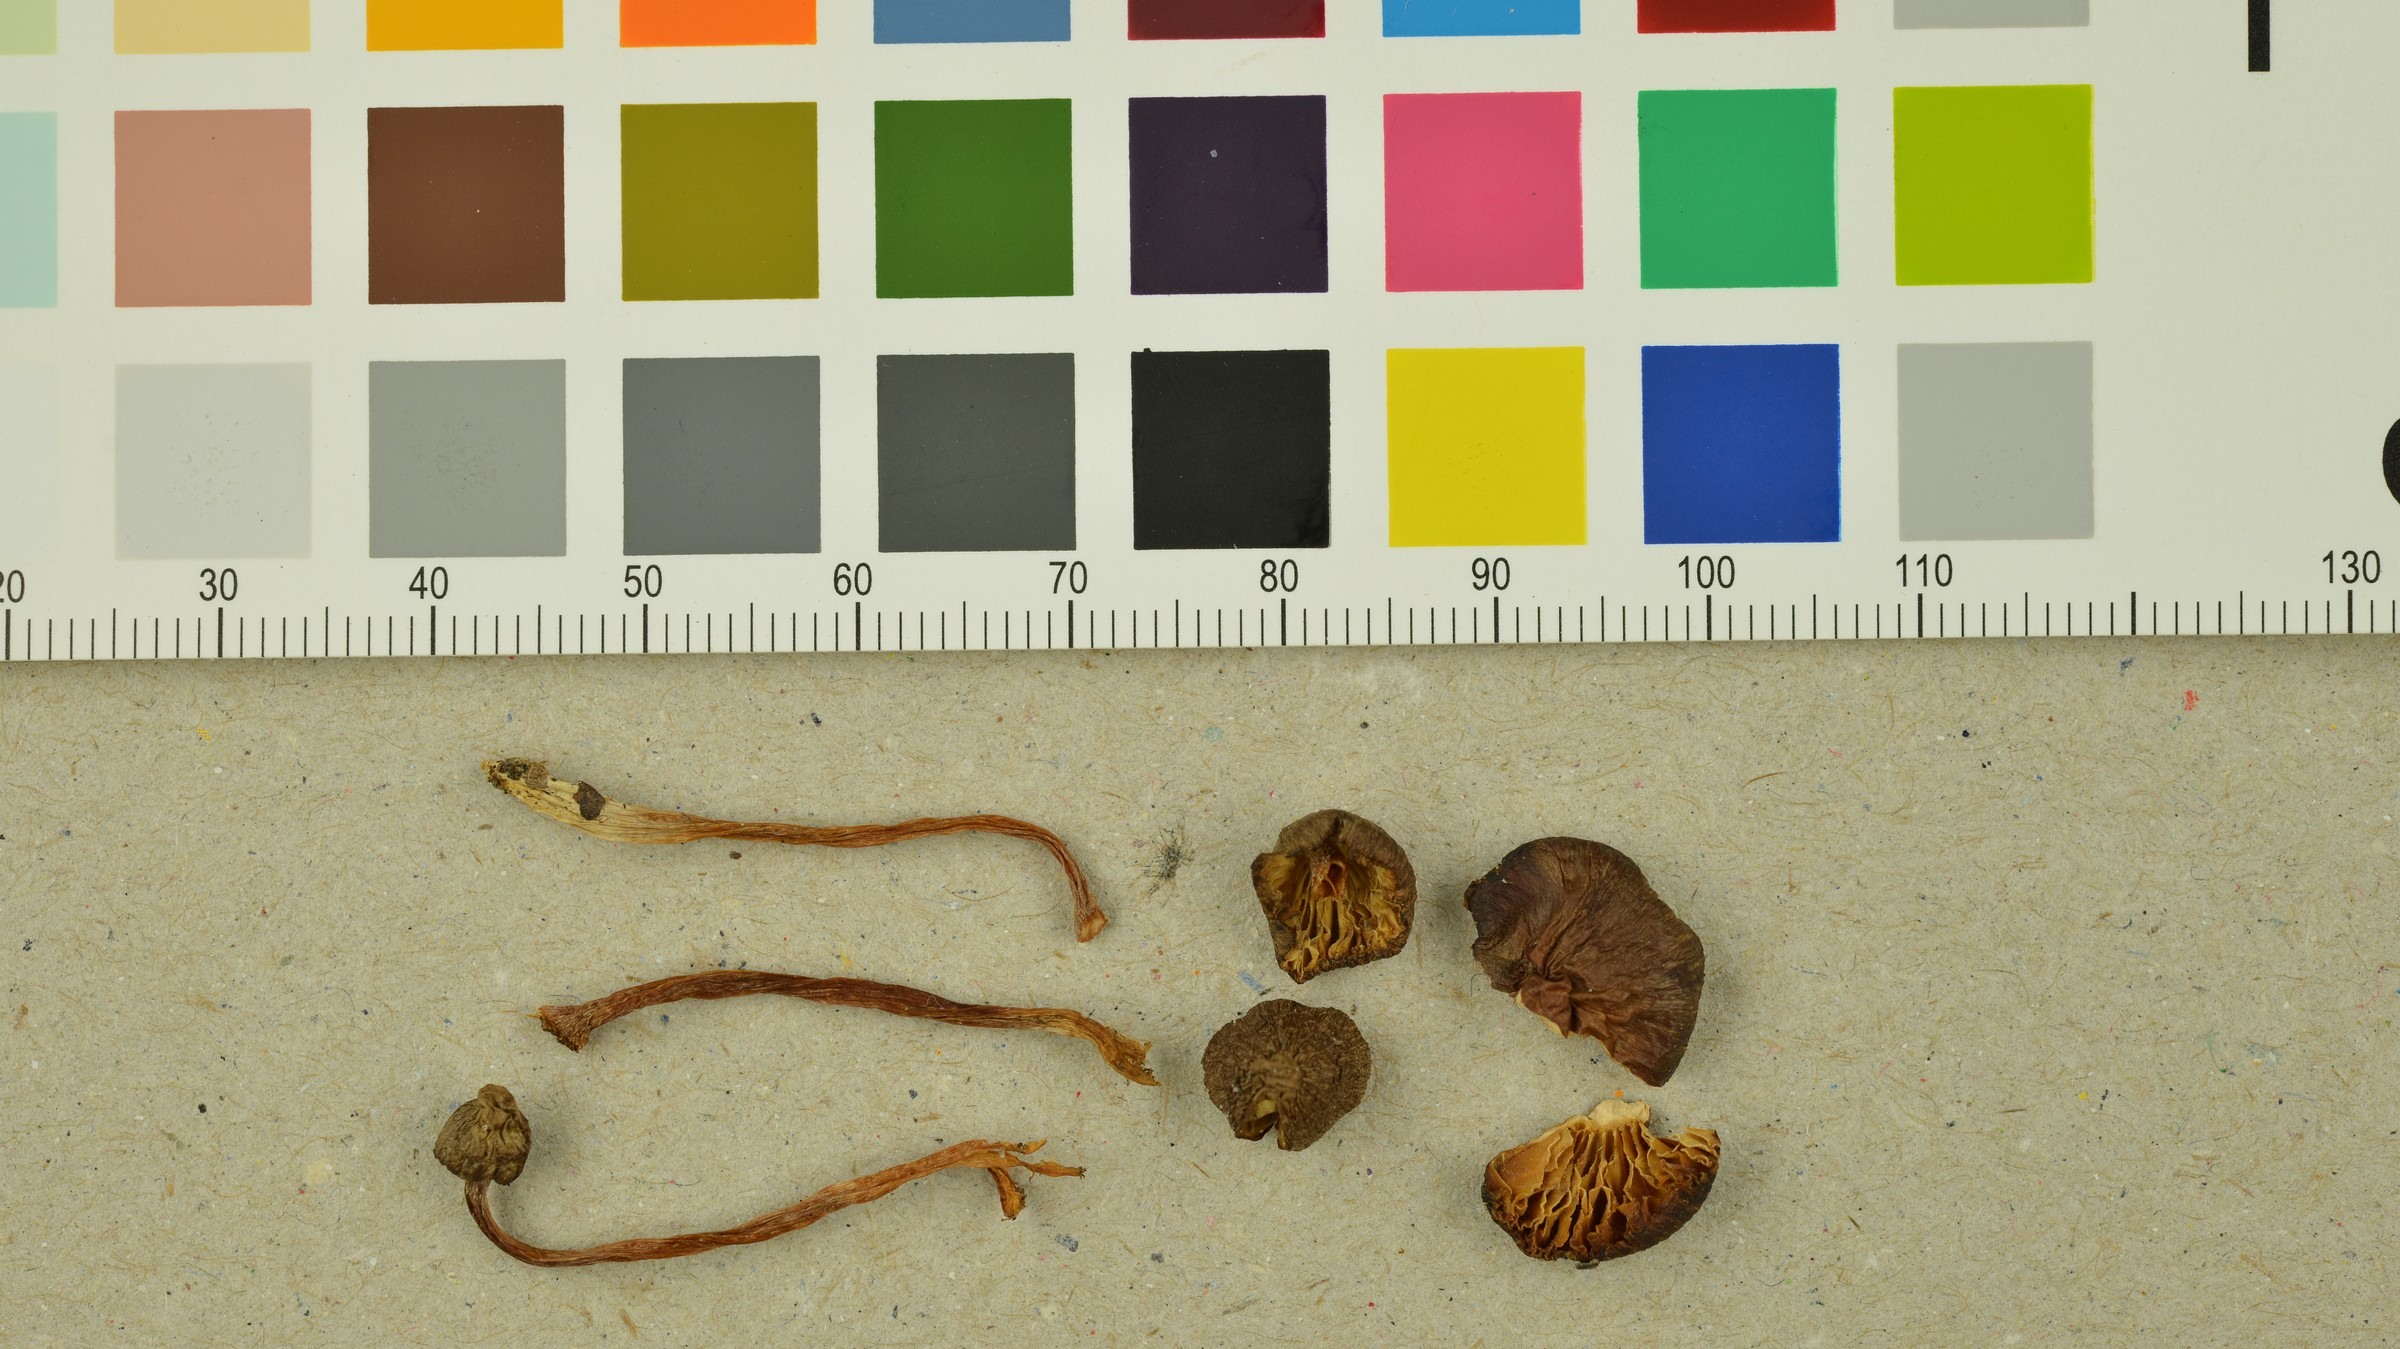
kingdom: Fungi
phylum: Basidiomycota
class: Agaricomycetes
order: Agaricales
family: Inocybaceae
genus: Inocybe
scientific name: Inocybe flocculosa
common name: Fleecy fibrecap
